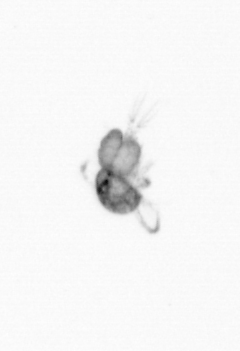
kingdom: Animalia
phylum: Arthropoda
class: Copepoda
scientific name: Copepoda
